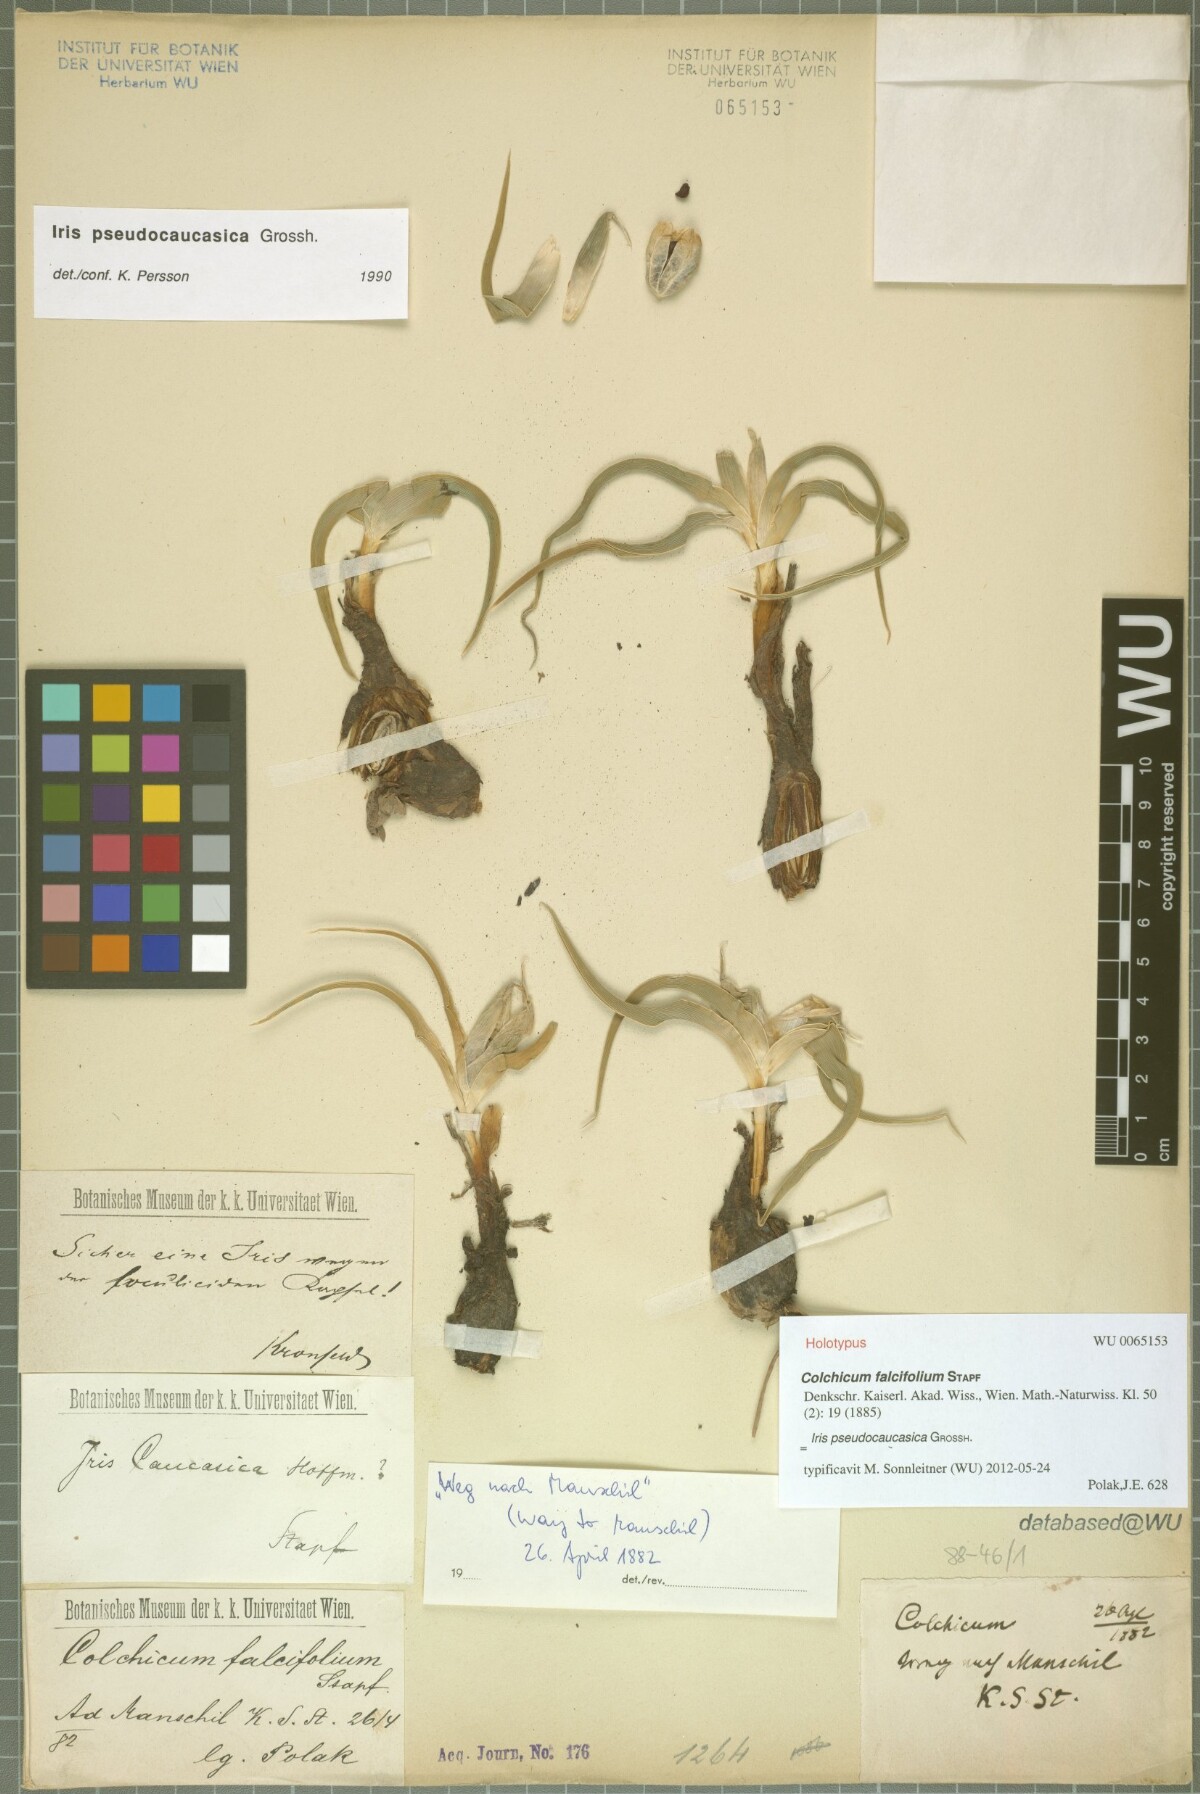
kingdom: Plantae
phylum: Tracheophyta
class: Liliopsida
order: Asparagales
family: Iridaceae
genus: Iris
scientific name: Iris caucasica
